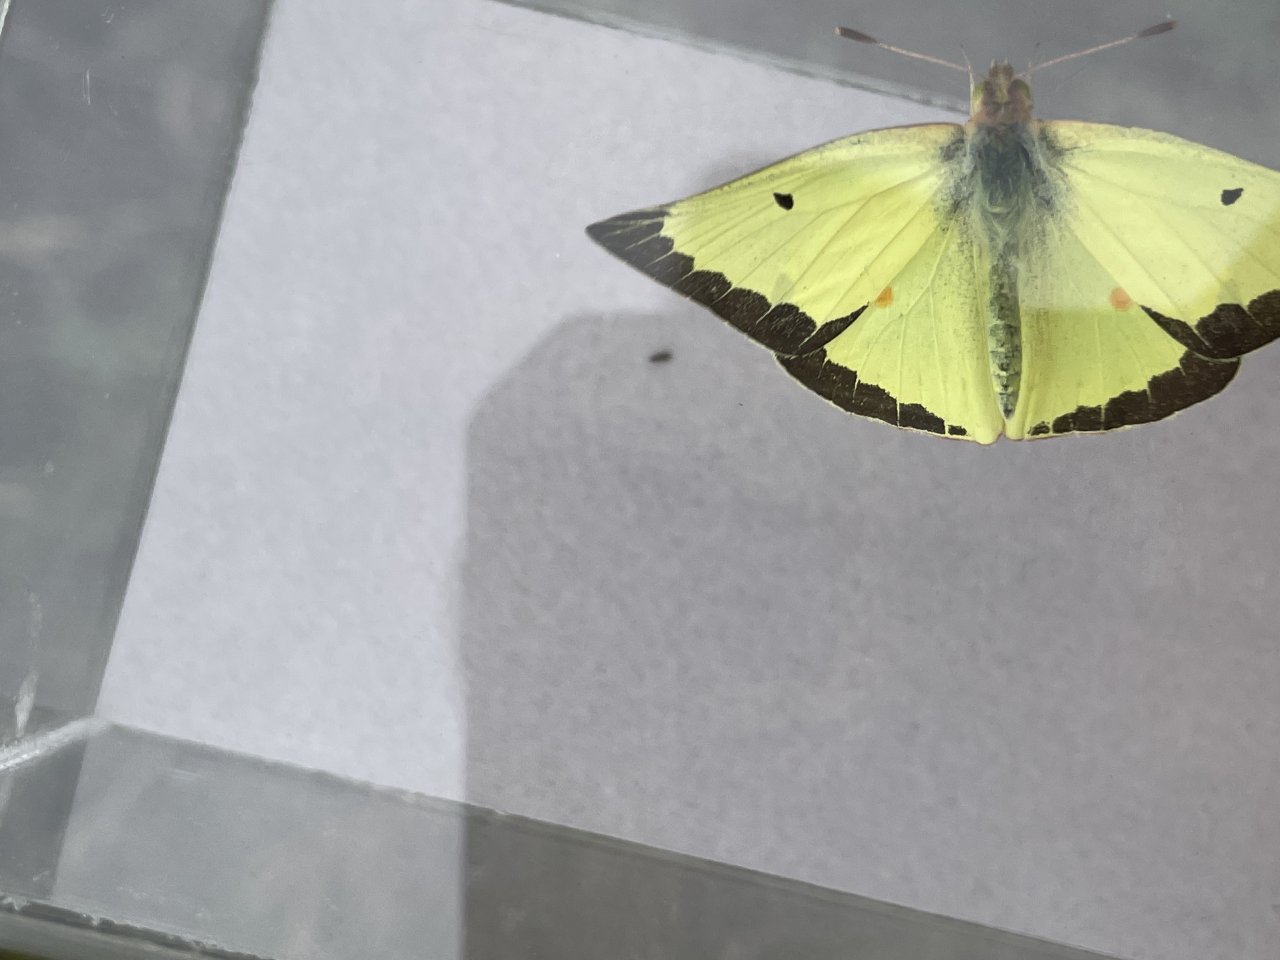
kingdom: Animalia
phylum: Arthropoda
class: Insecta
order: Lepidoptera
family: Pieridae
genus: Colias
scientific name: Colias philodice
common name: Clouded Sulphur
